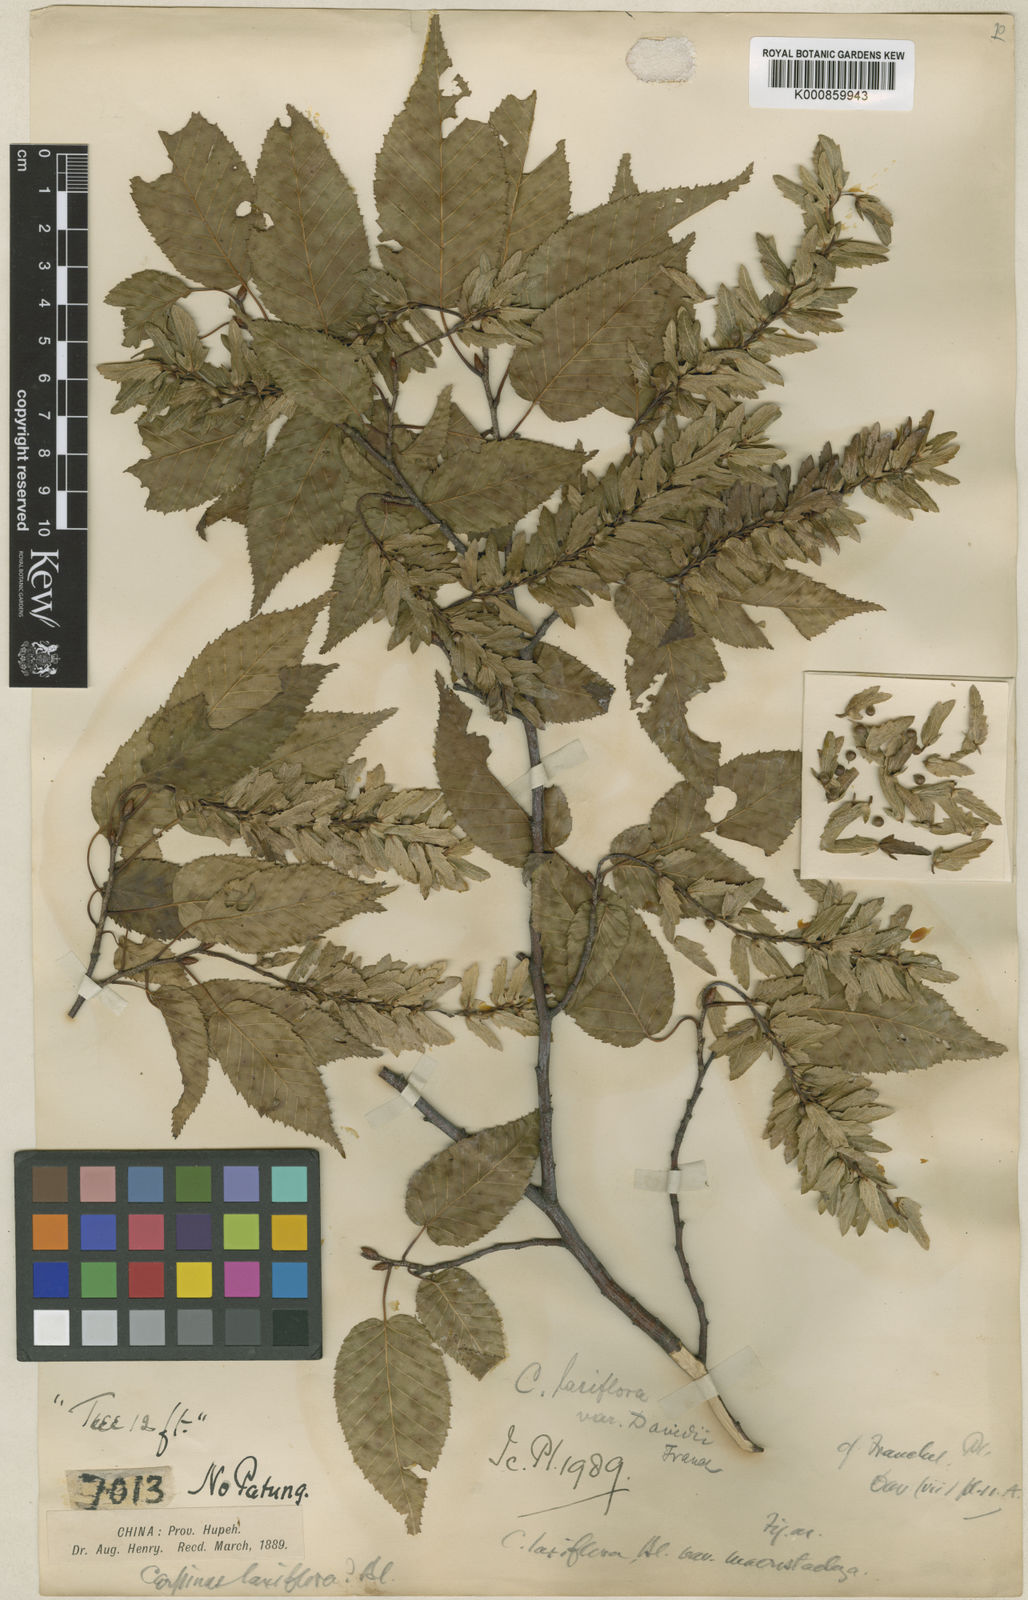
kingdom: Plantae
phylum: Tracheophyta
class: Magnoliopsida
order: Fagales
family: Betulaceae
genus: Carpinus
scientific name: Carpinus laxiflora
